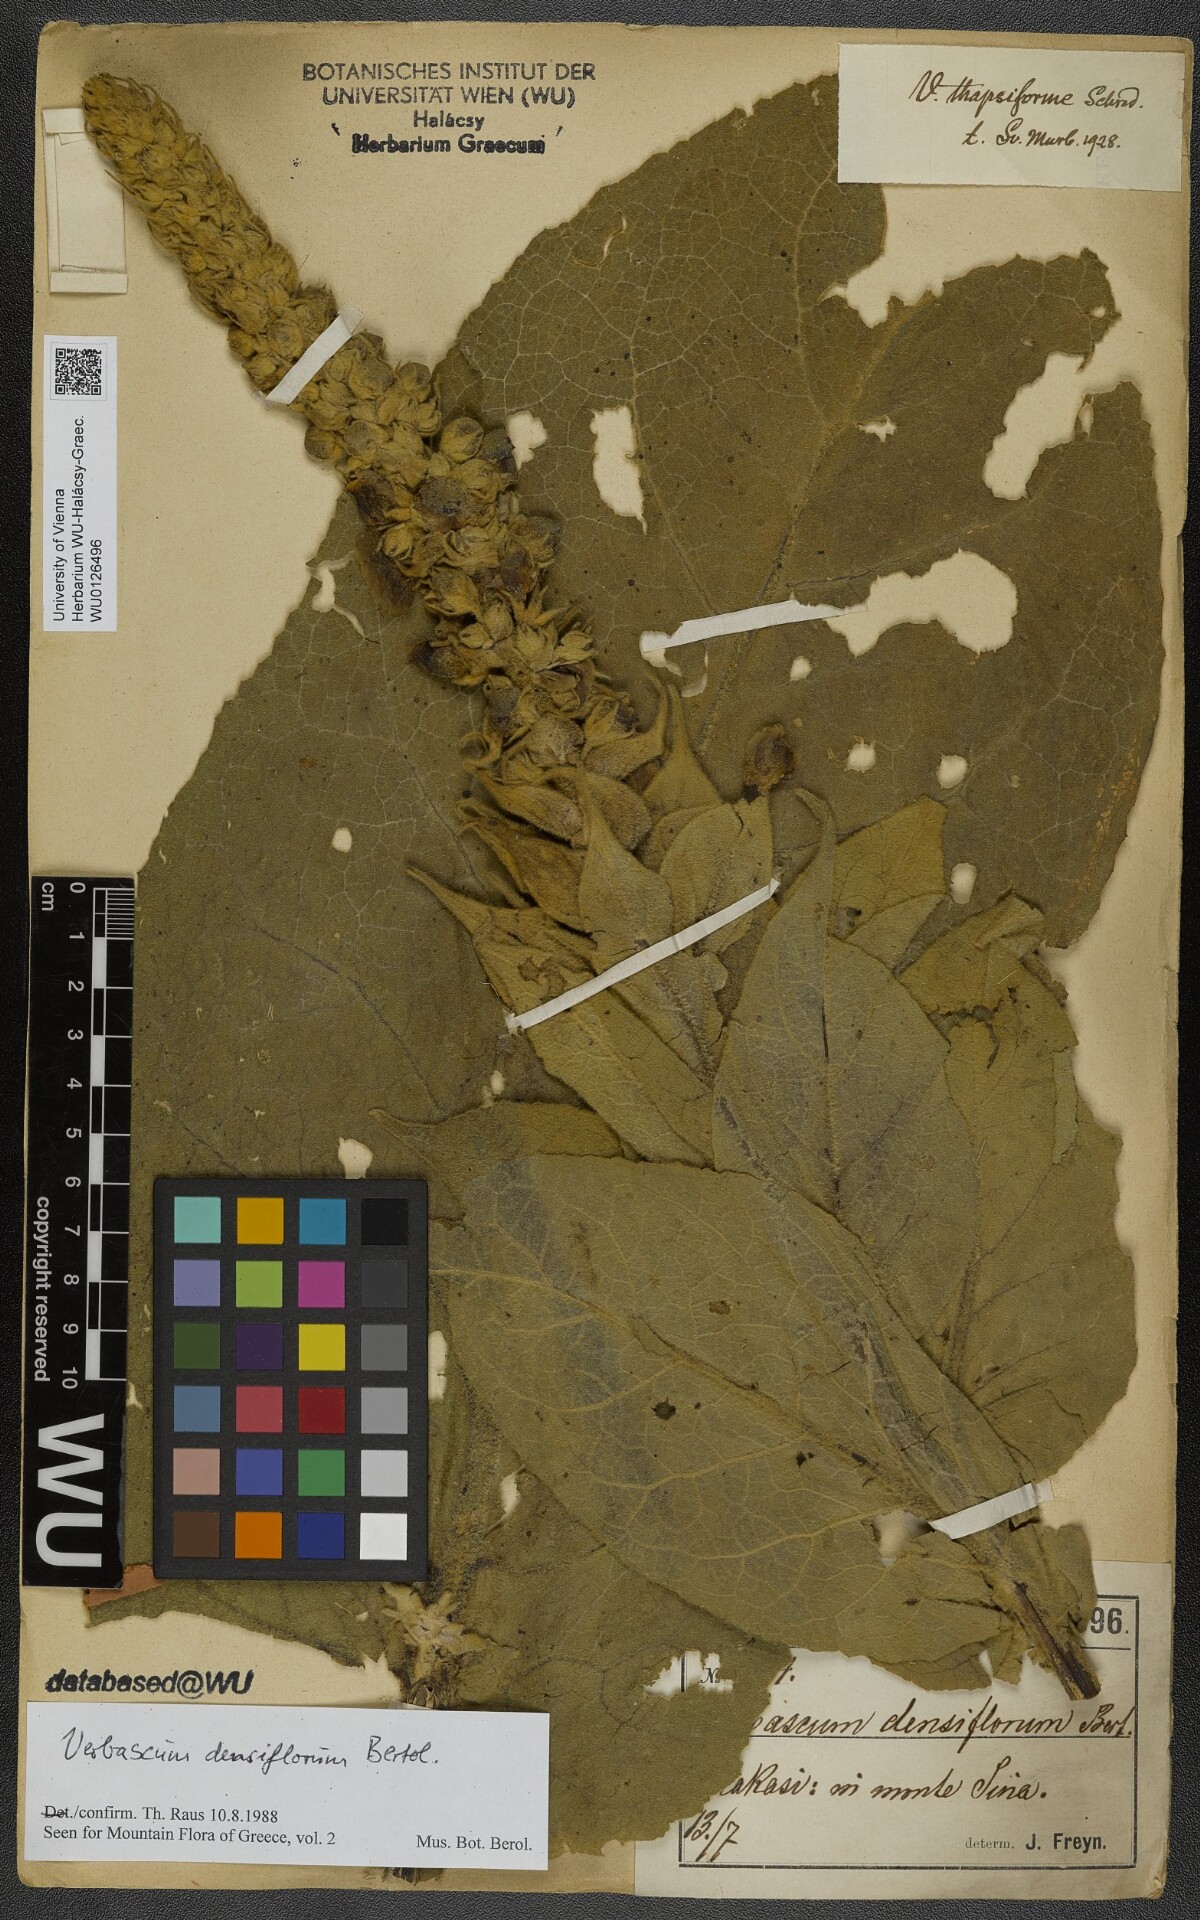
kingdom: Plantae
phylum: Tracheophyta
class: Magnoliopsida
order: Lamiales
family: Scrophulariaceae
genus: Verbascum
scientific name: Verbascum densiflorum
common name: Dense-flowered mullein
